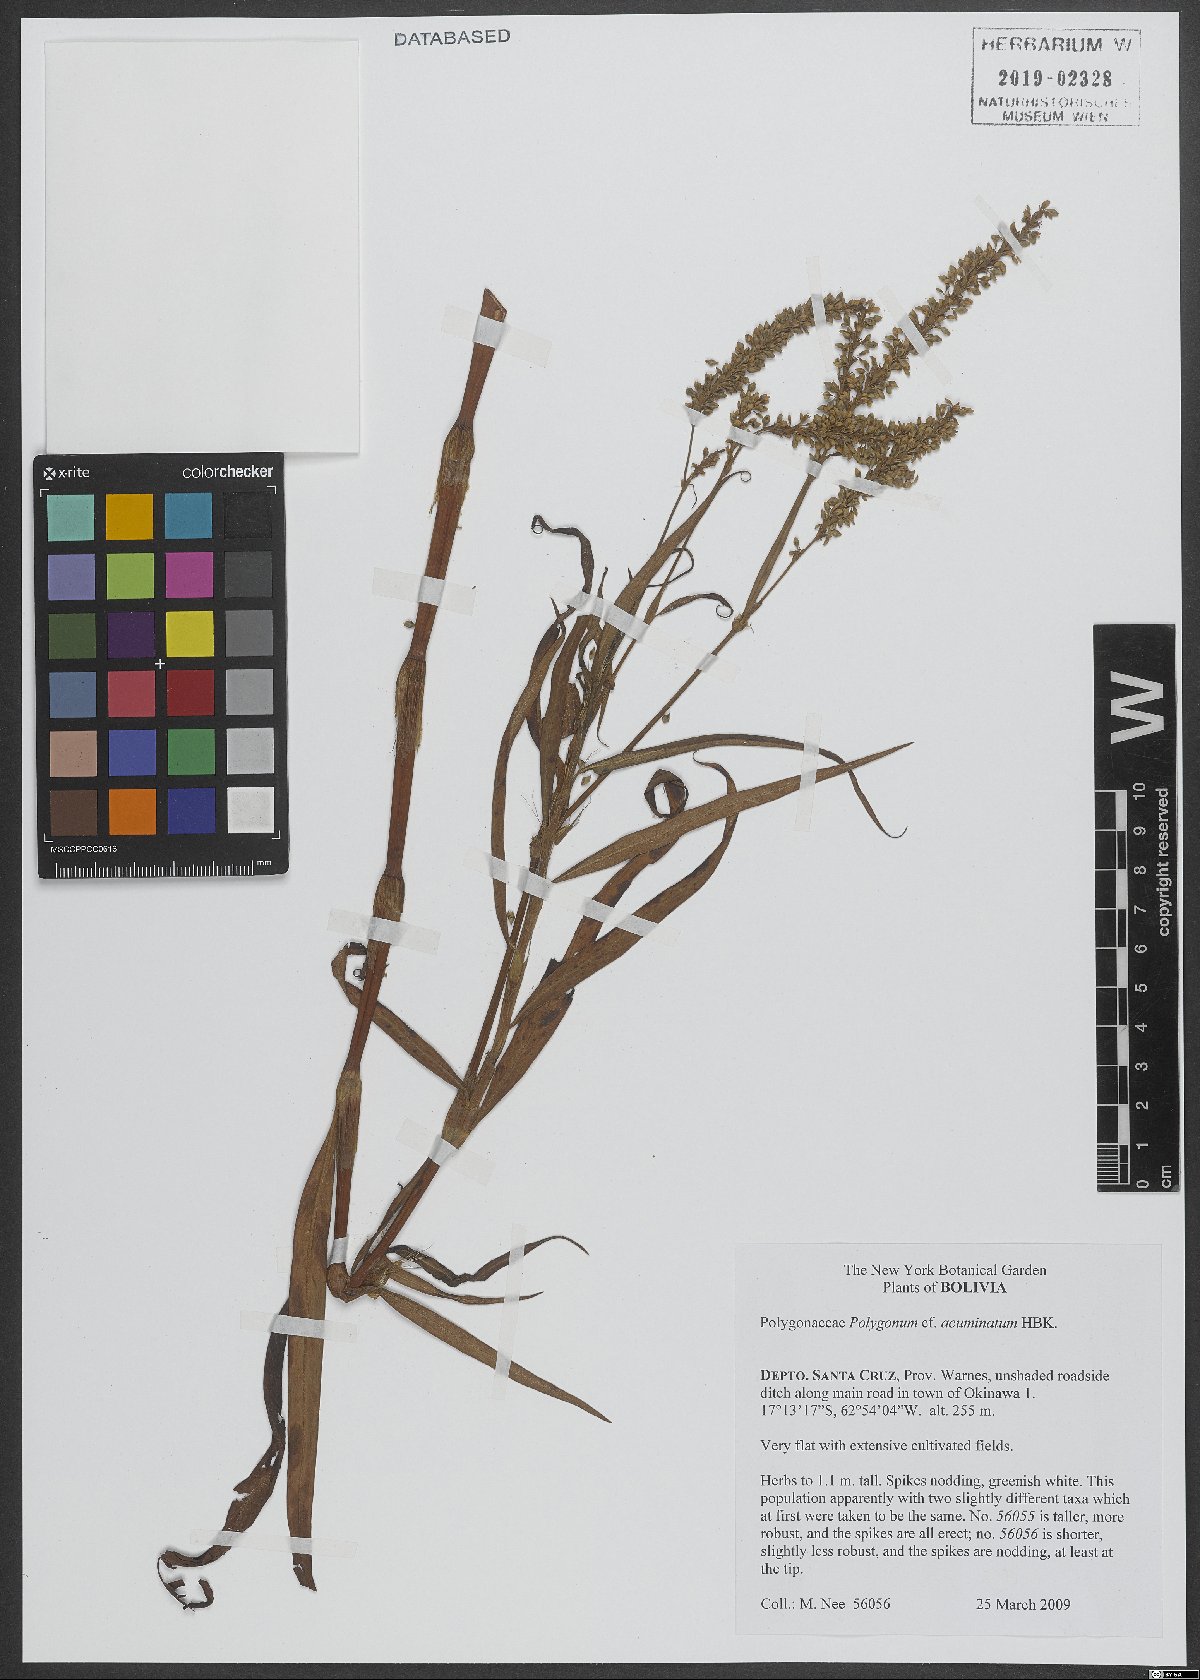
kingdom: Plantae
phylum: Tracheophyta
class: Magnoliopsida
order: Caryophyllales
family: Polygonaceae
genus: Persicaria
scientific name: Persicaria acuminata
